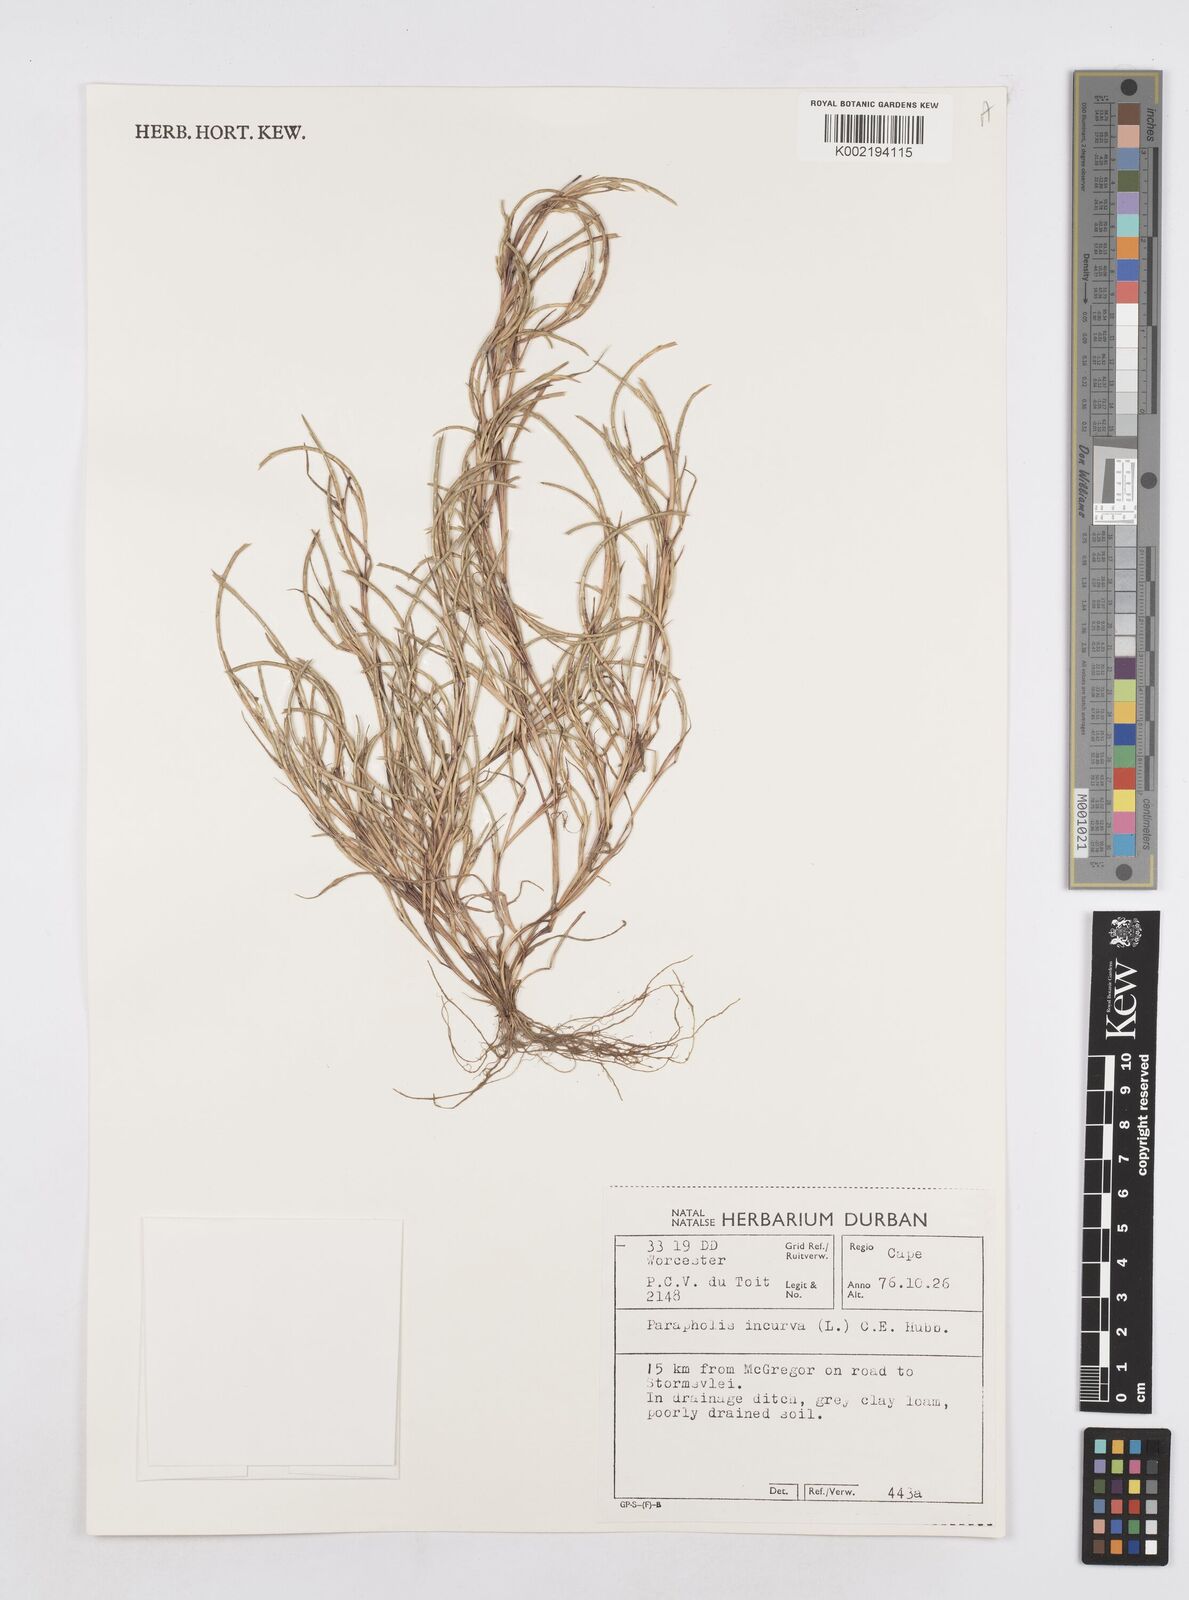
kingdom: Plantae
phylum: Tracheophyta
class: Liliopsida
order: Poales
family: Poaceae
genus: Parapholis
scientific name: Parapholis incurva
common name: Curved sicklegrass
